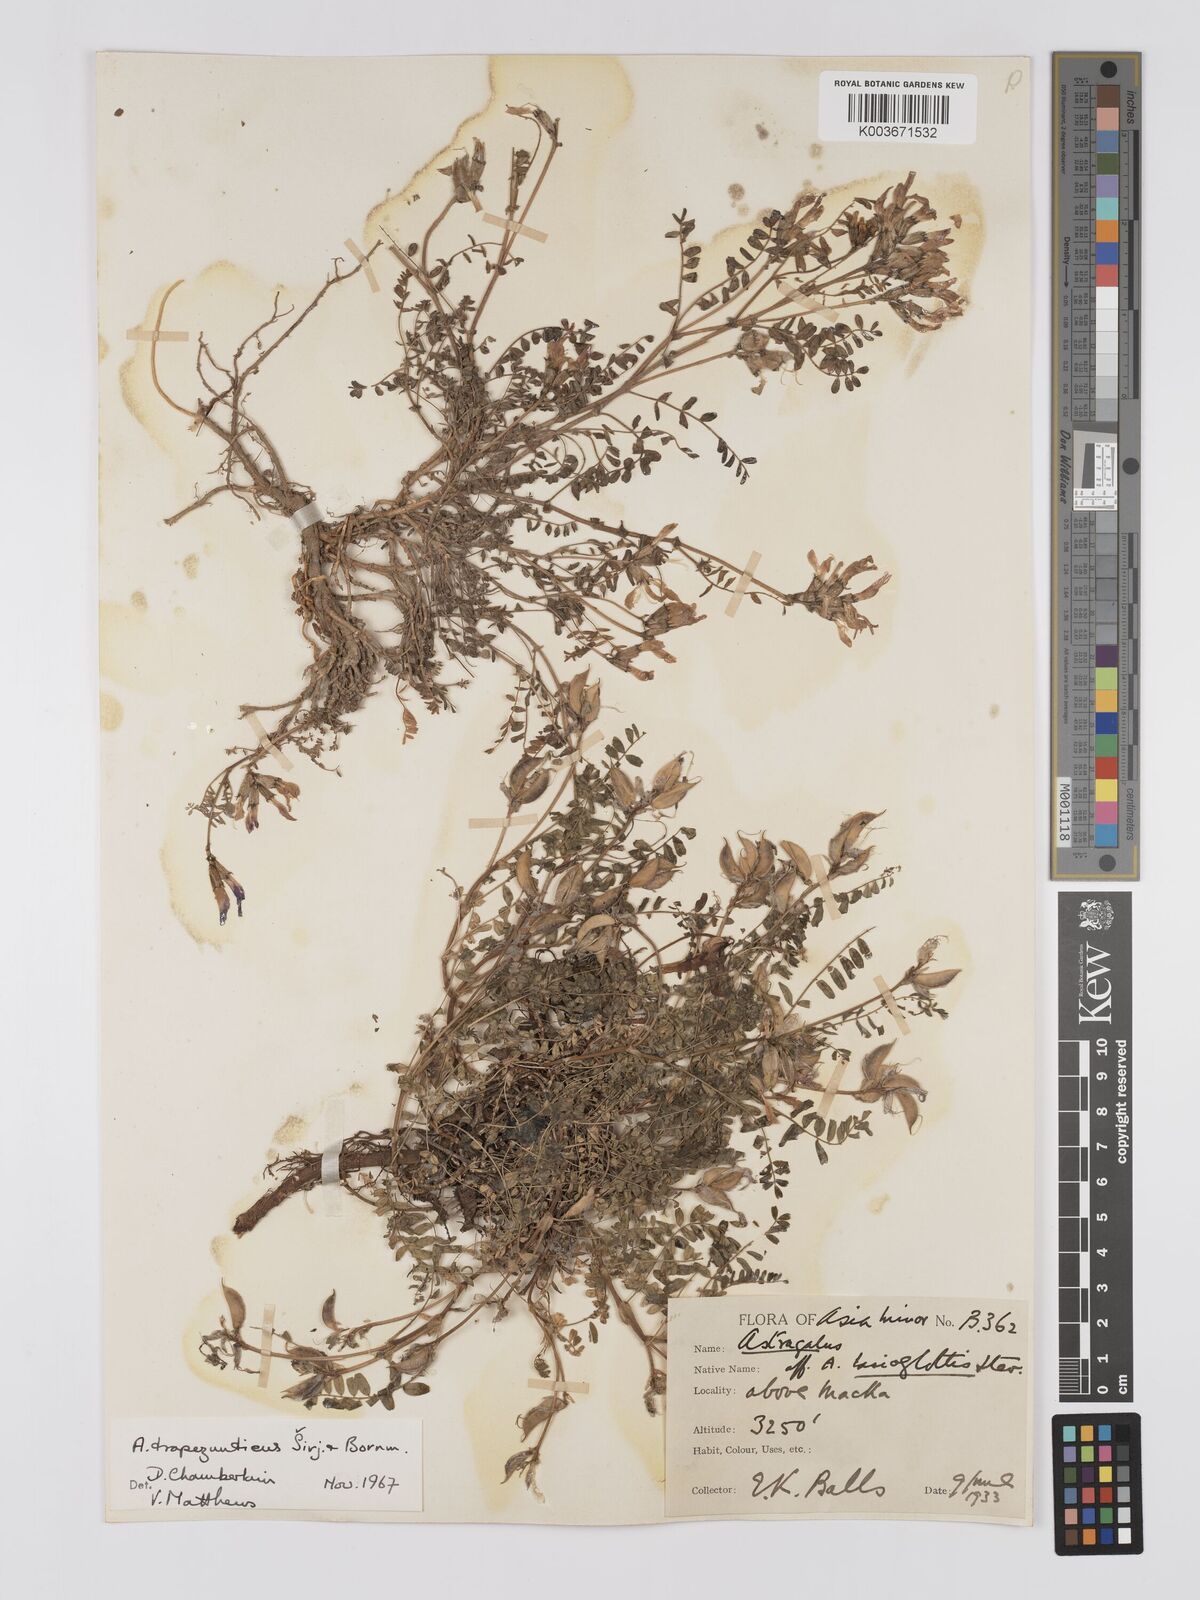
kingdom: Plantae
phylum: Tracheophyta
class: Magnoliopsida
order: Fabales
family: Fabaceae
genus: Astragalus
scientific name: Astragalus viridissimus
